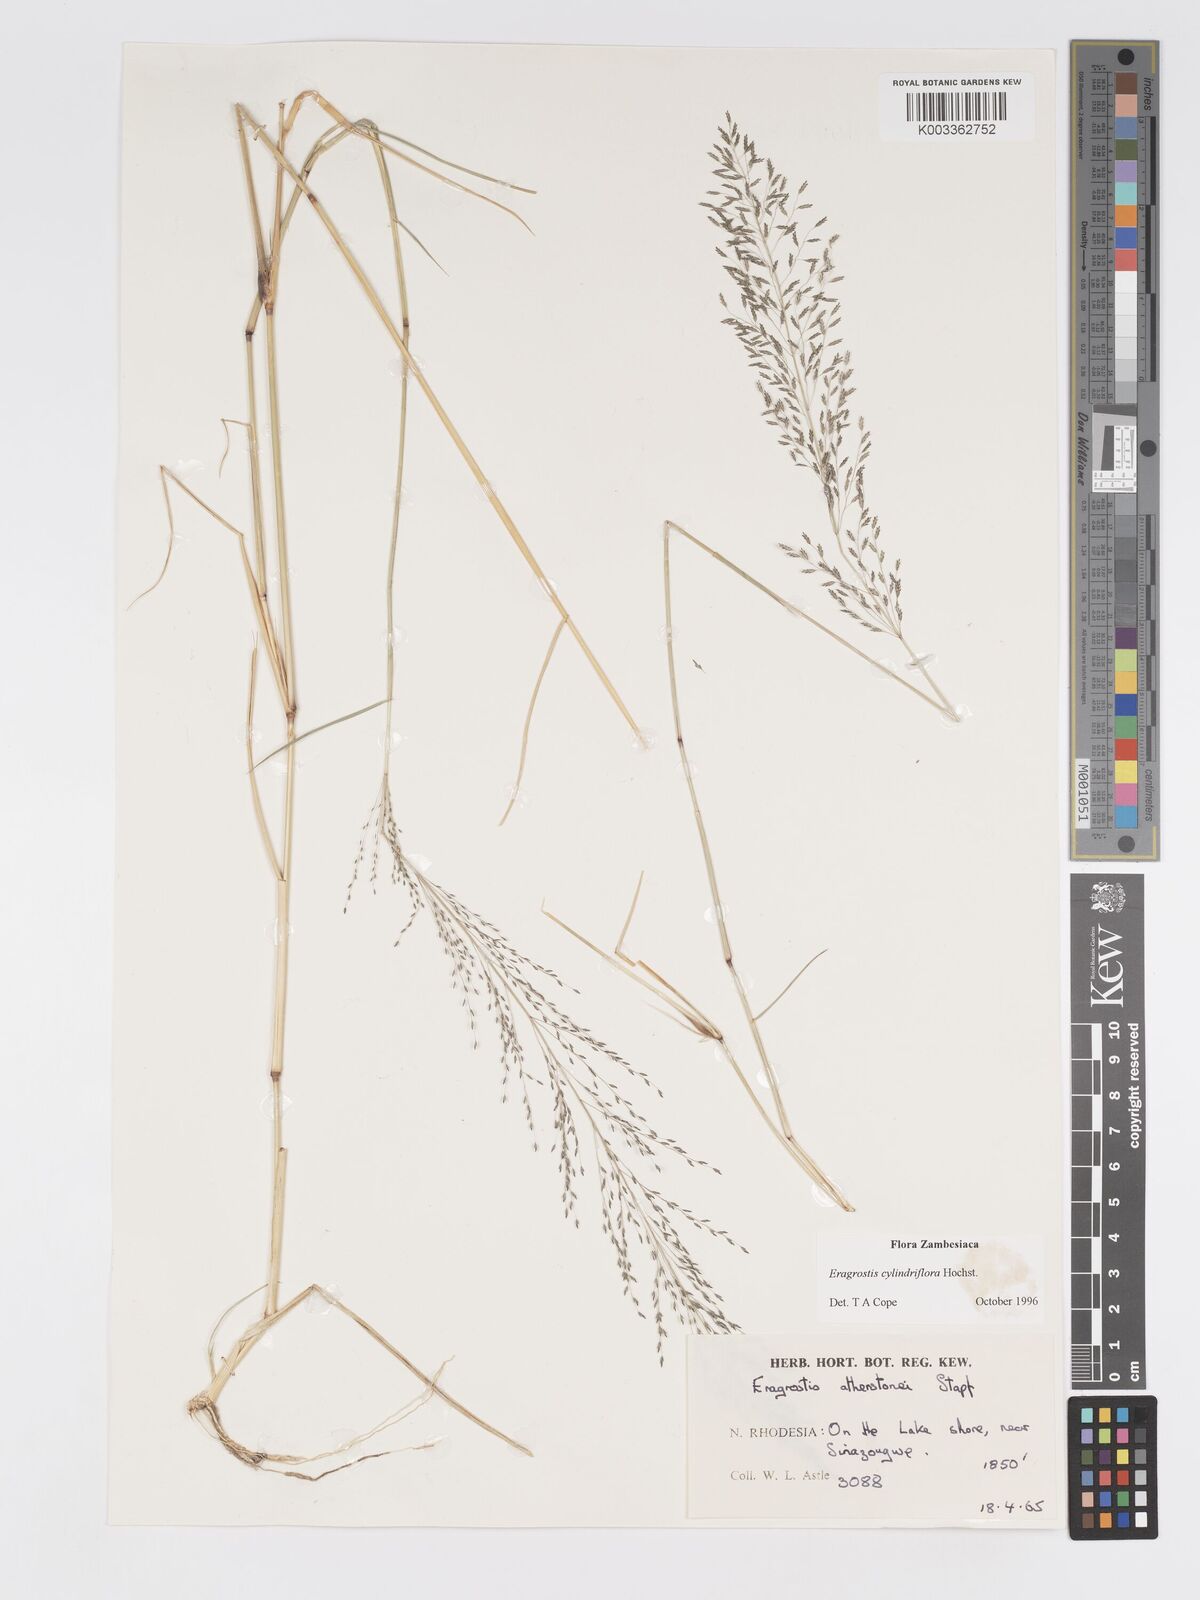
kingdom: Plantae
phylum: Tracheophyta
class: Liliopsida
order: Poales
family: Poaceae
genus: Eragrostis
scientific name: Eragrostis cylindriflora
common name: Cylinderflower lovegrass
